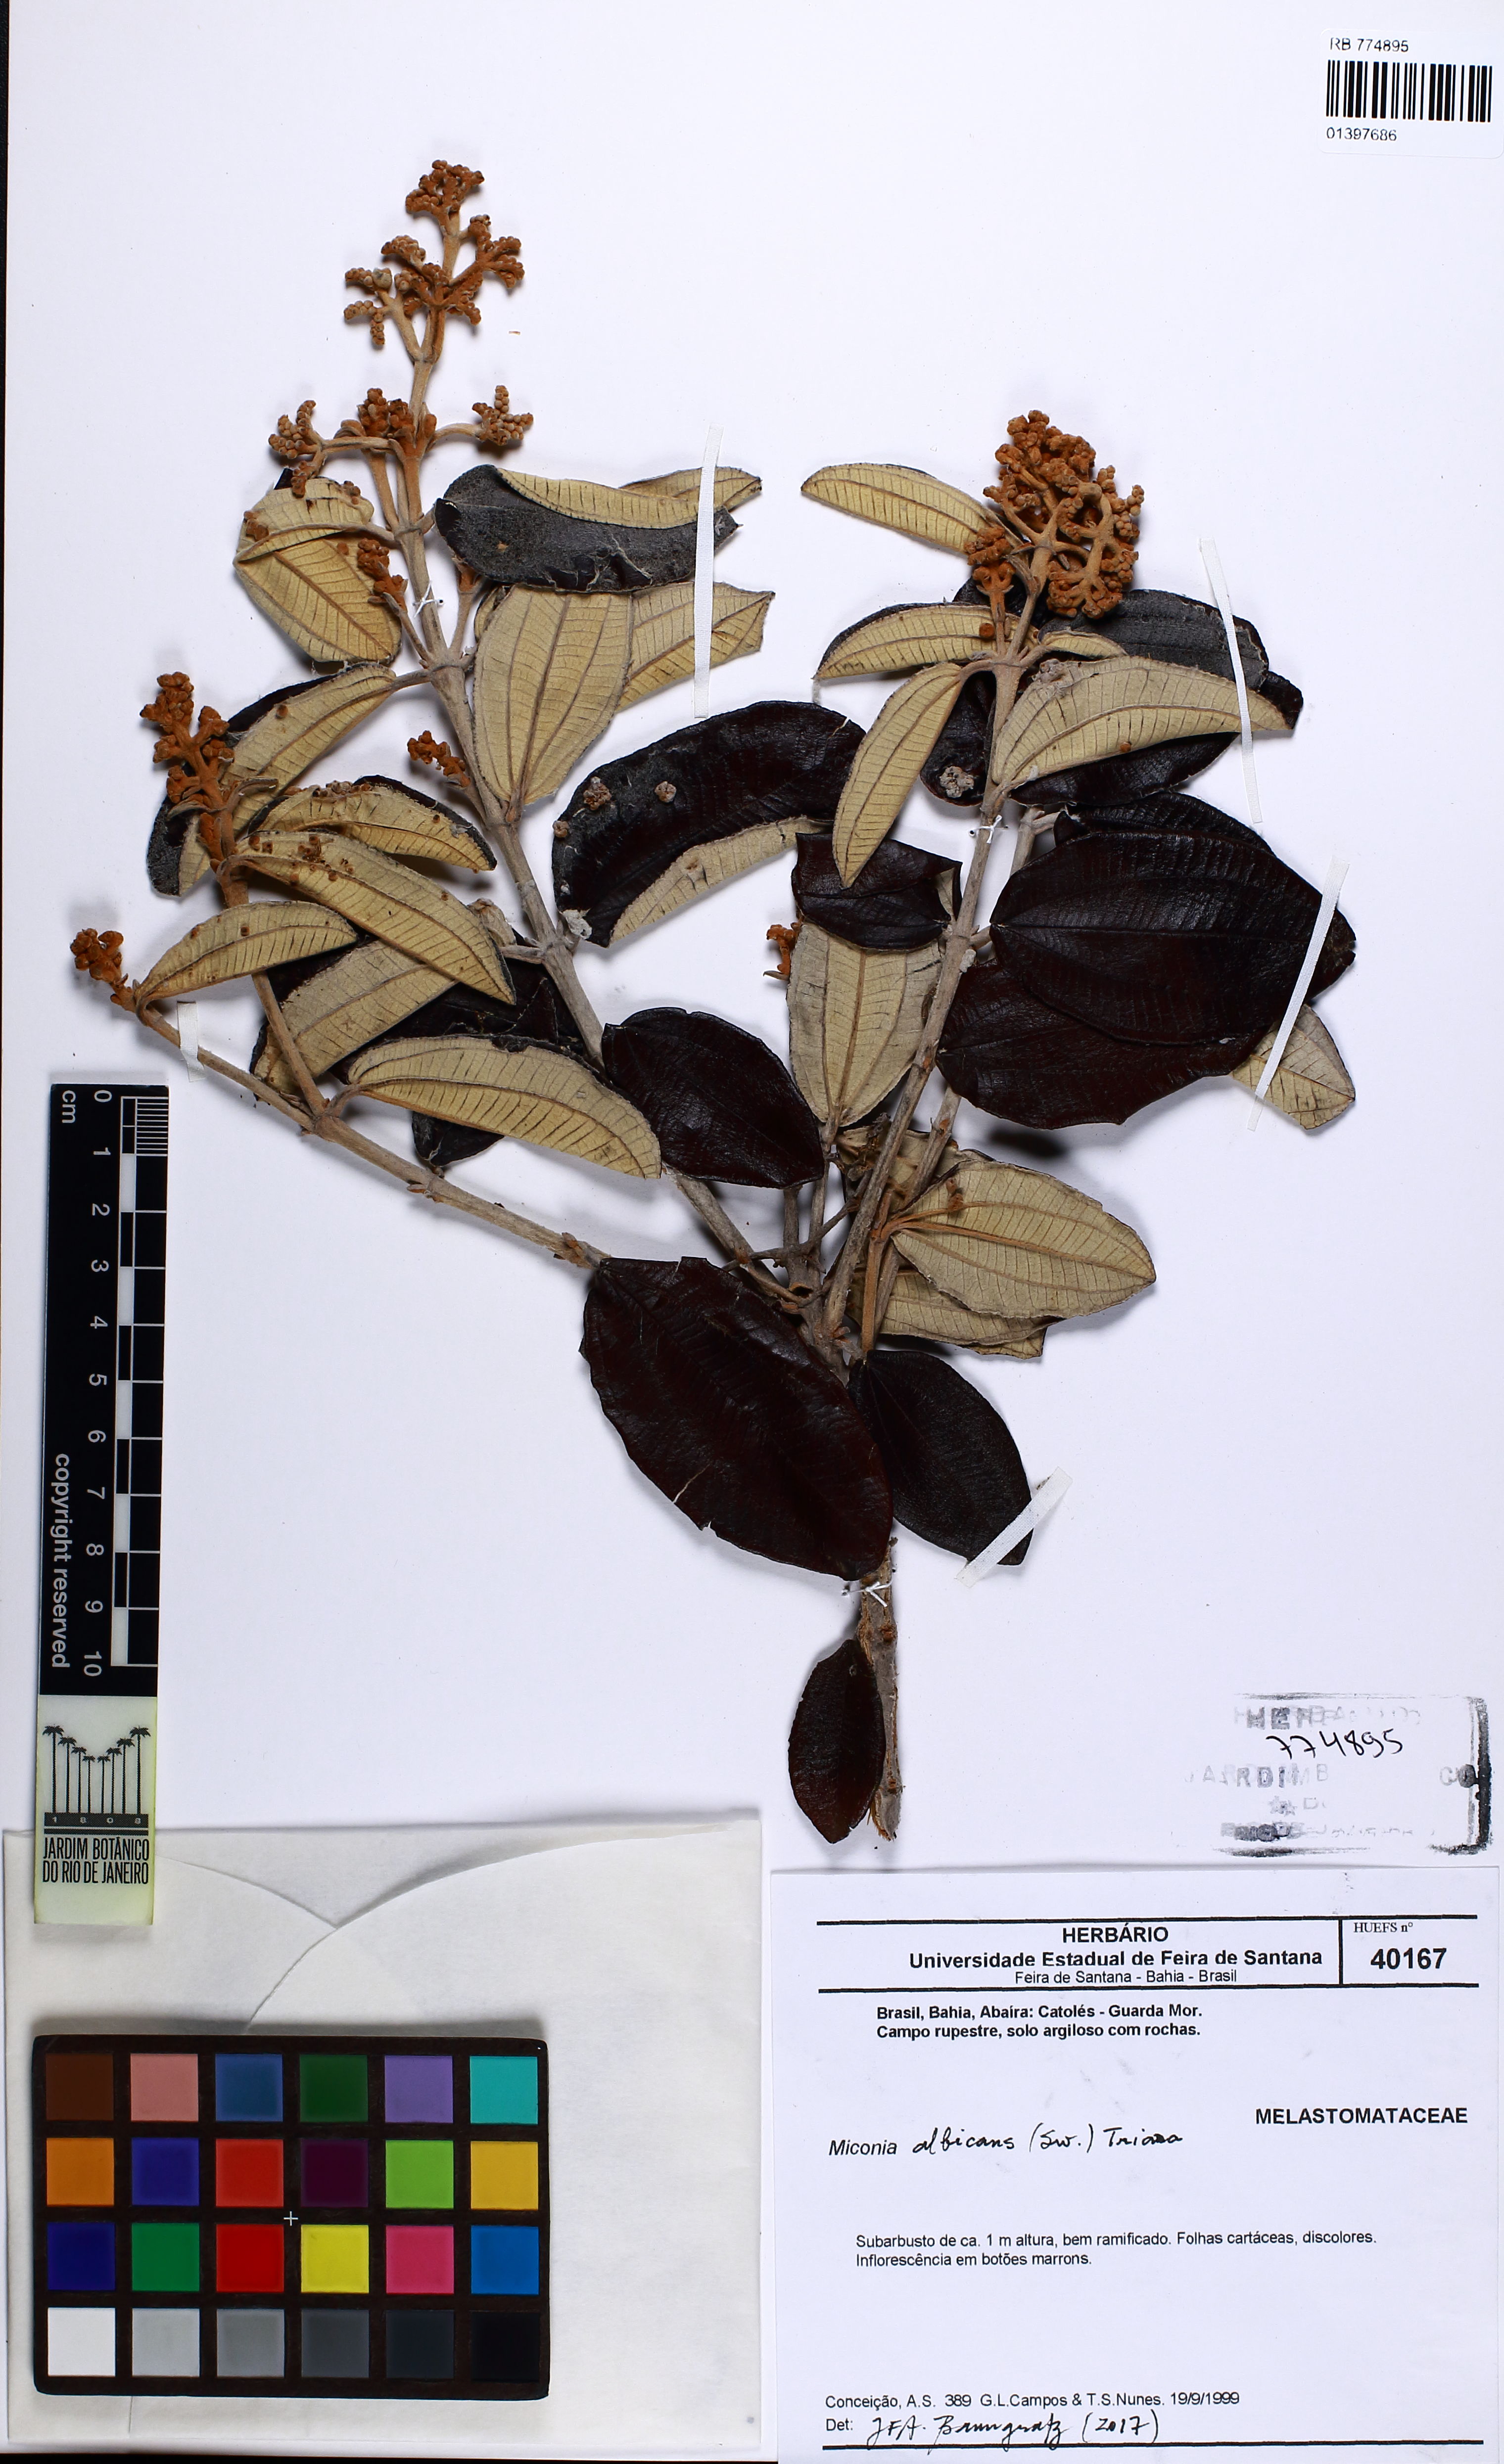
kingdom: Plantae
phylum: Tracheophyta
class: Magnoliopsida
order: Myrtales
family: Melastomataceae
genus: Miconia
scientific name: Miconia albicans
